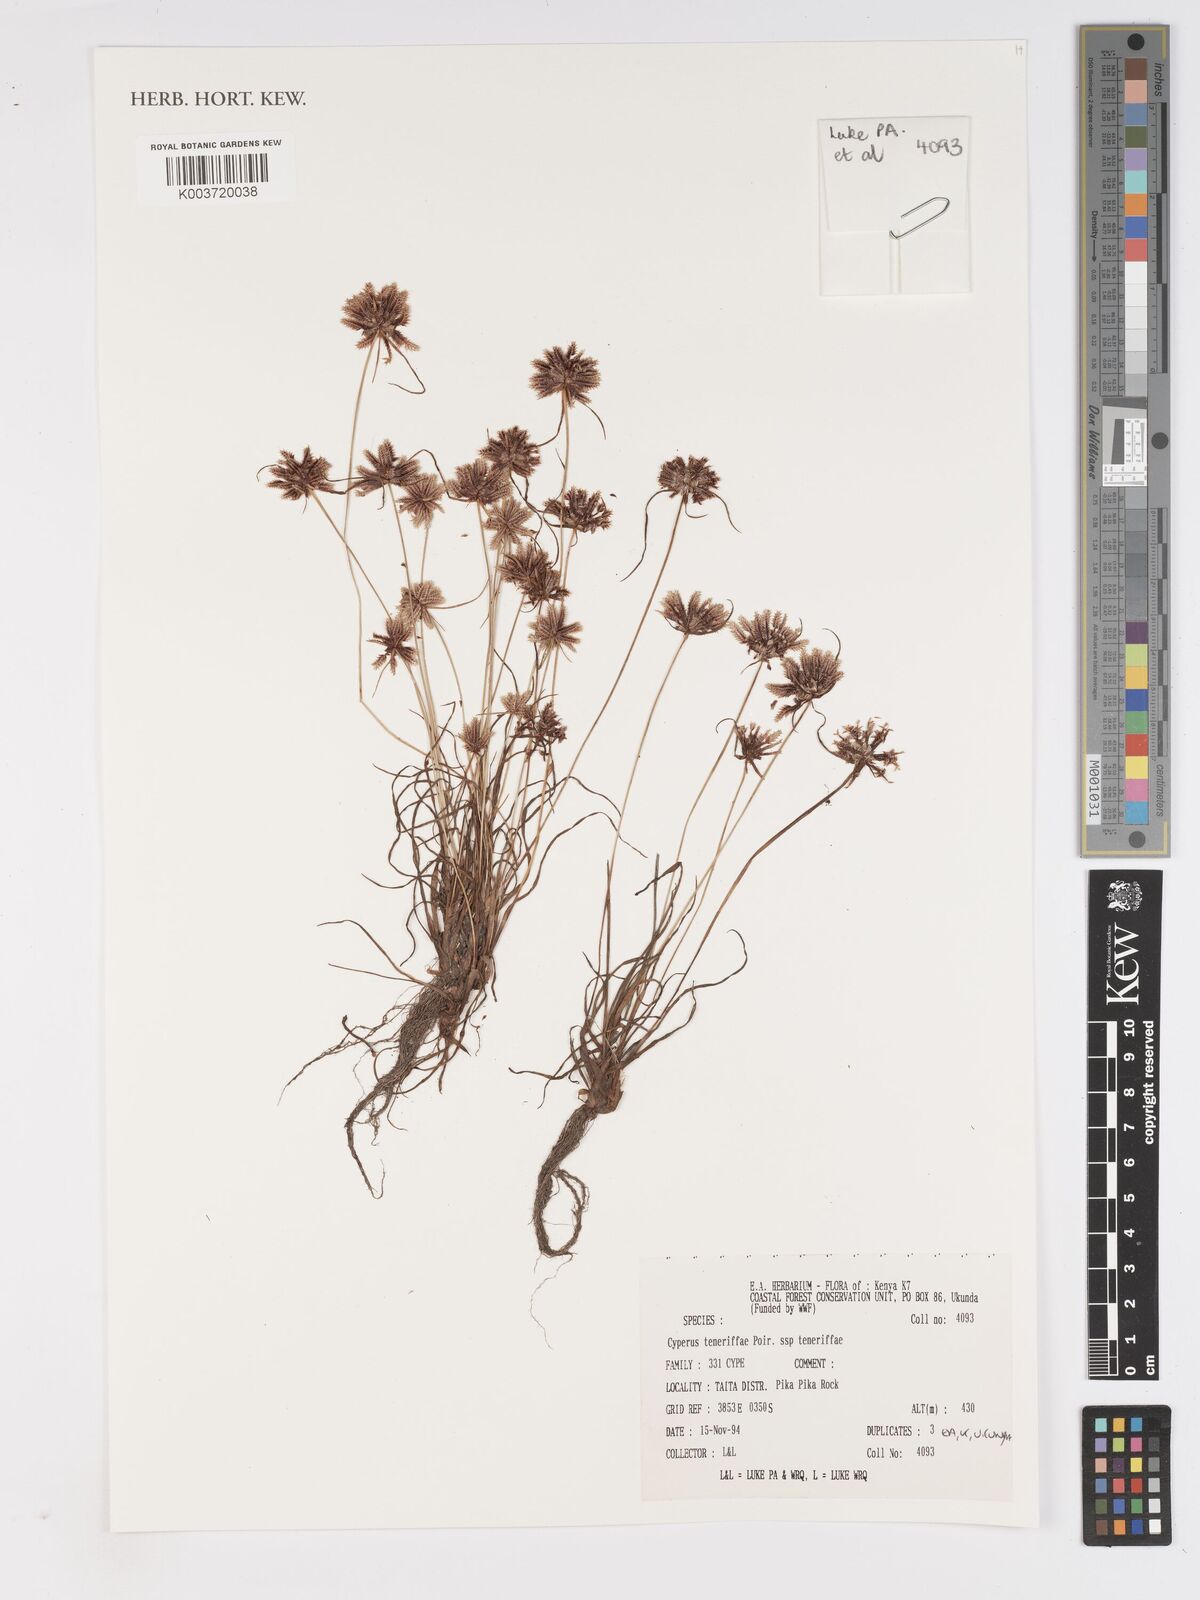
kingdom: Plantae
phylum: Tracheophyta
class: Liliopsida
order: Poales
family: Cyperaceae
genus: Cyperus
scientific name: Cyperus rubicundus
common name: Coco-grass
